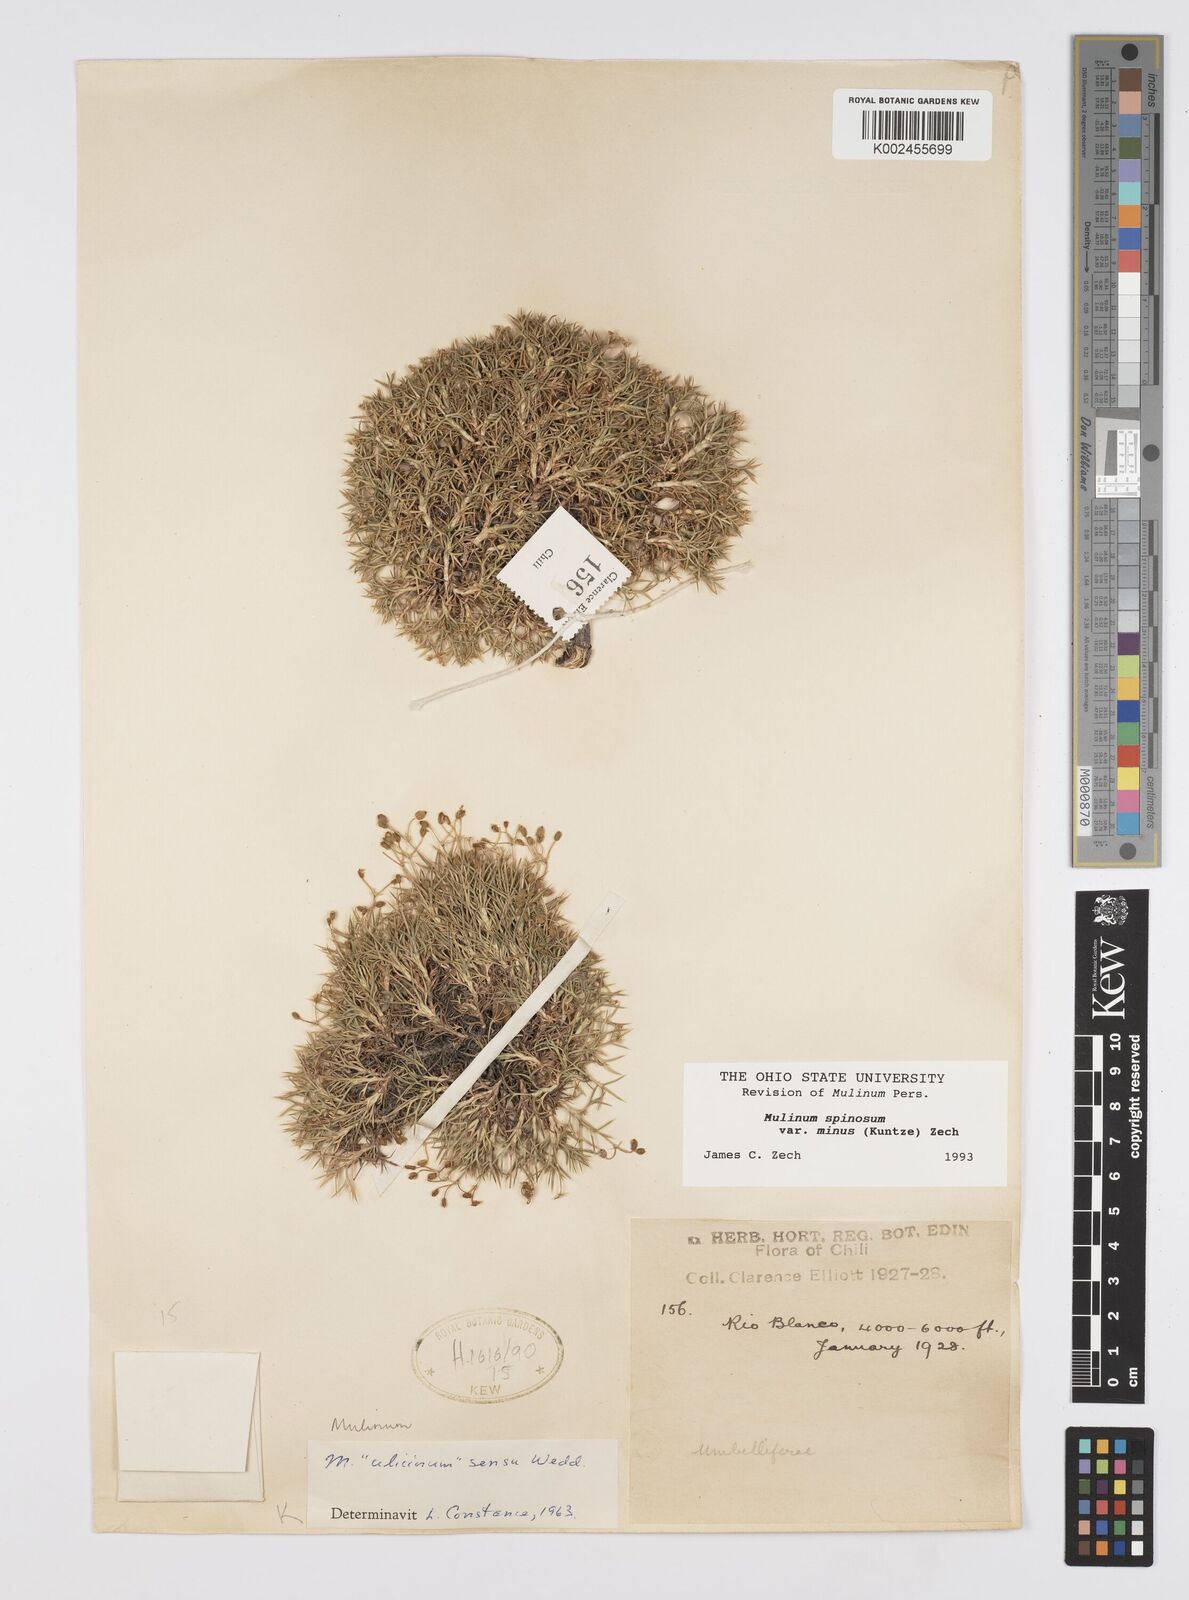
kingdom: Plantae
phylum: Tracheophyta
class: Magnoliopsida
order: Apiales
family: Apiaceae
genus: Azorella
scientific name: Azorella prolifera
